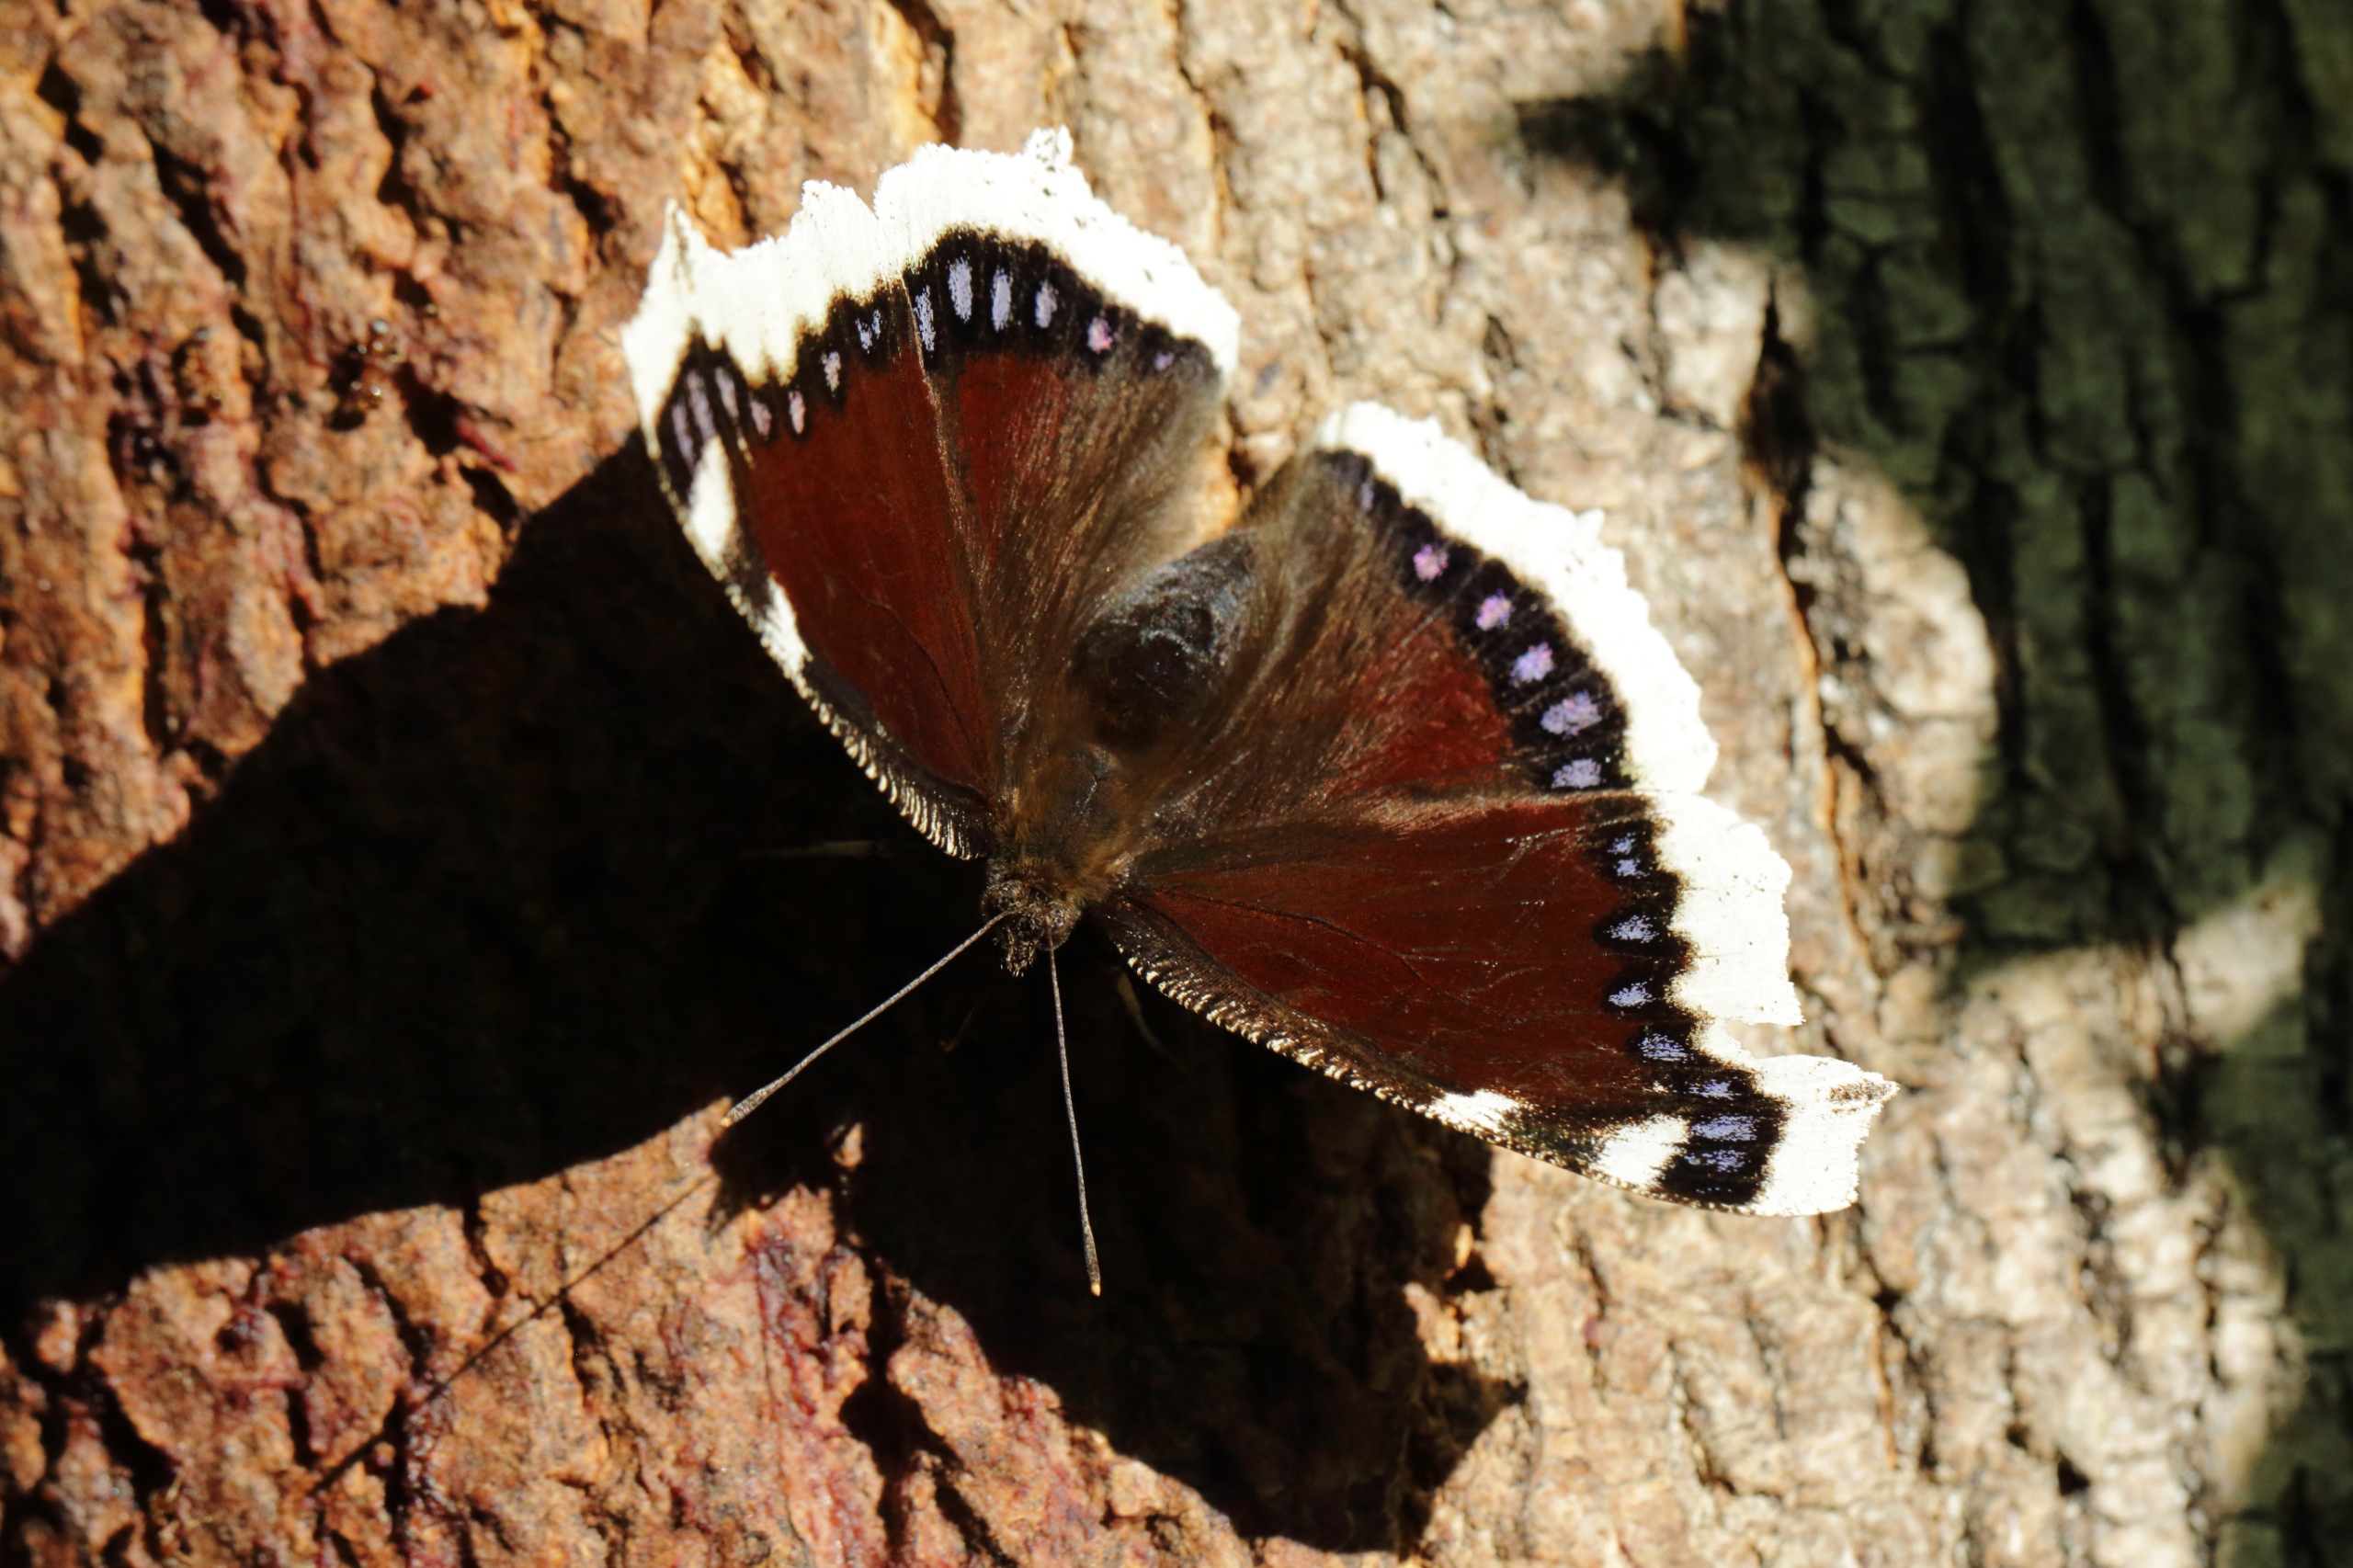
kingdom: Animalia
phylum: Arthropoda
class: Insecta
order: Lepidoptera
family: Nymphalidae
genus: Nymphalis
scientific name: Nymphalis antiopa
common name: Sørgekåbe
